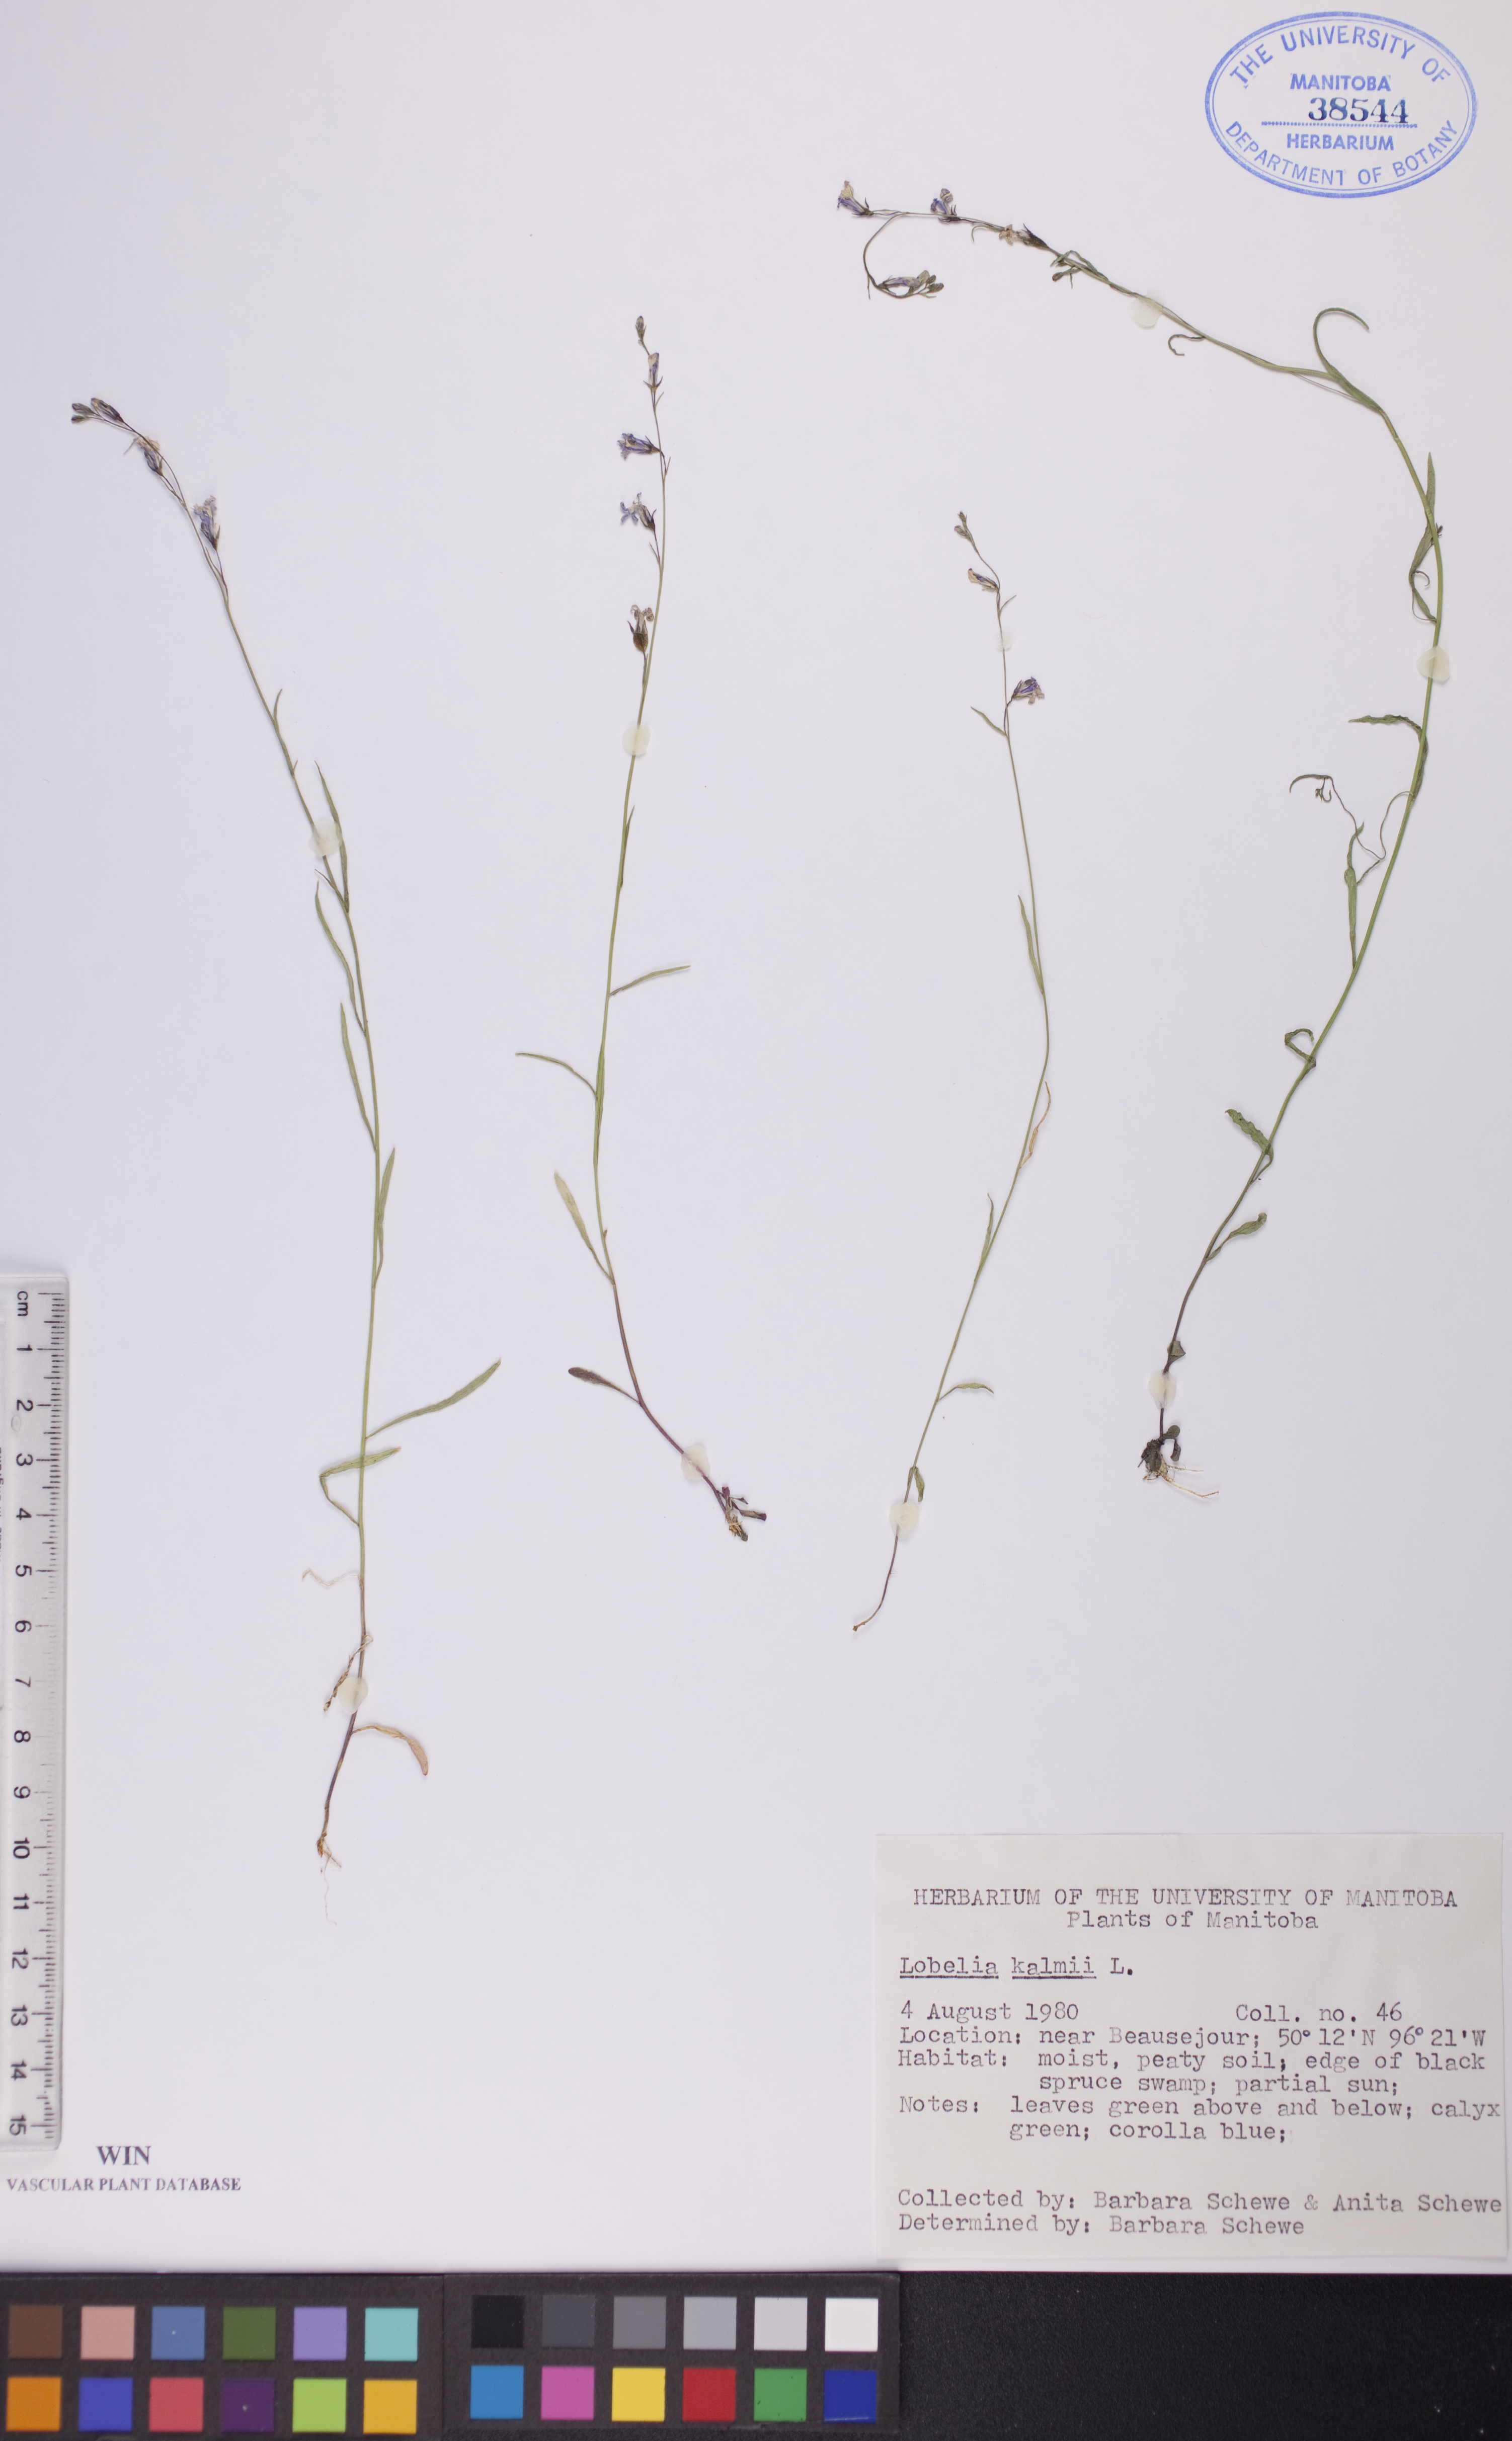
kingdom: Plantae
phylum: Tracheophyta
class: Magnoliopsida
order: Asterales
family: Campanulaceae
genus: Lobelia
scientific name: Lobelia kalmii
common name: Kalm's lobelia
